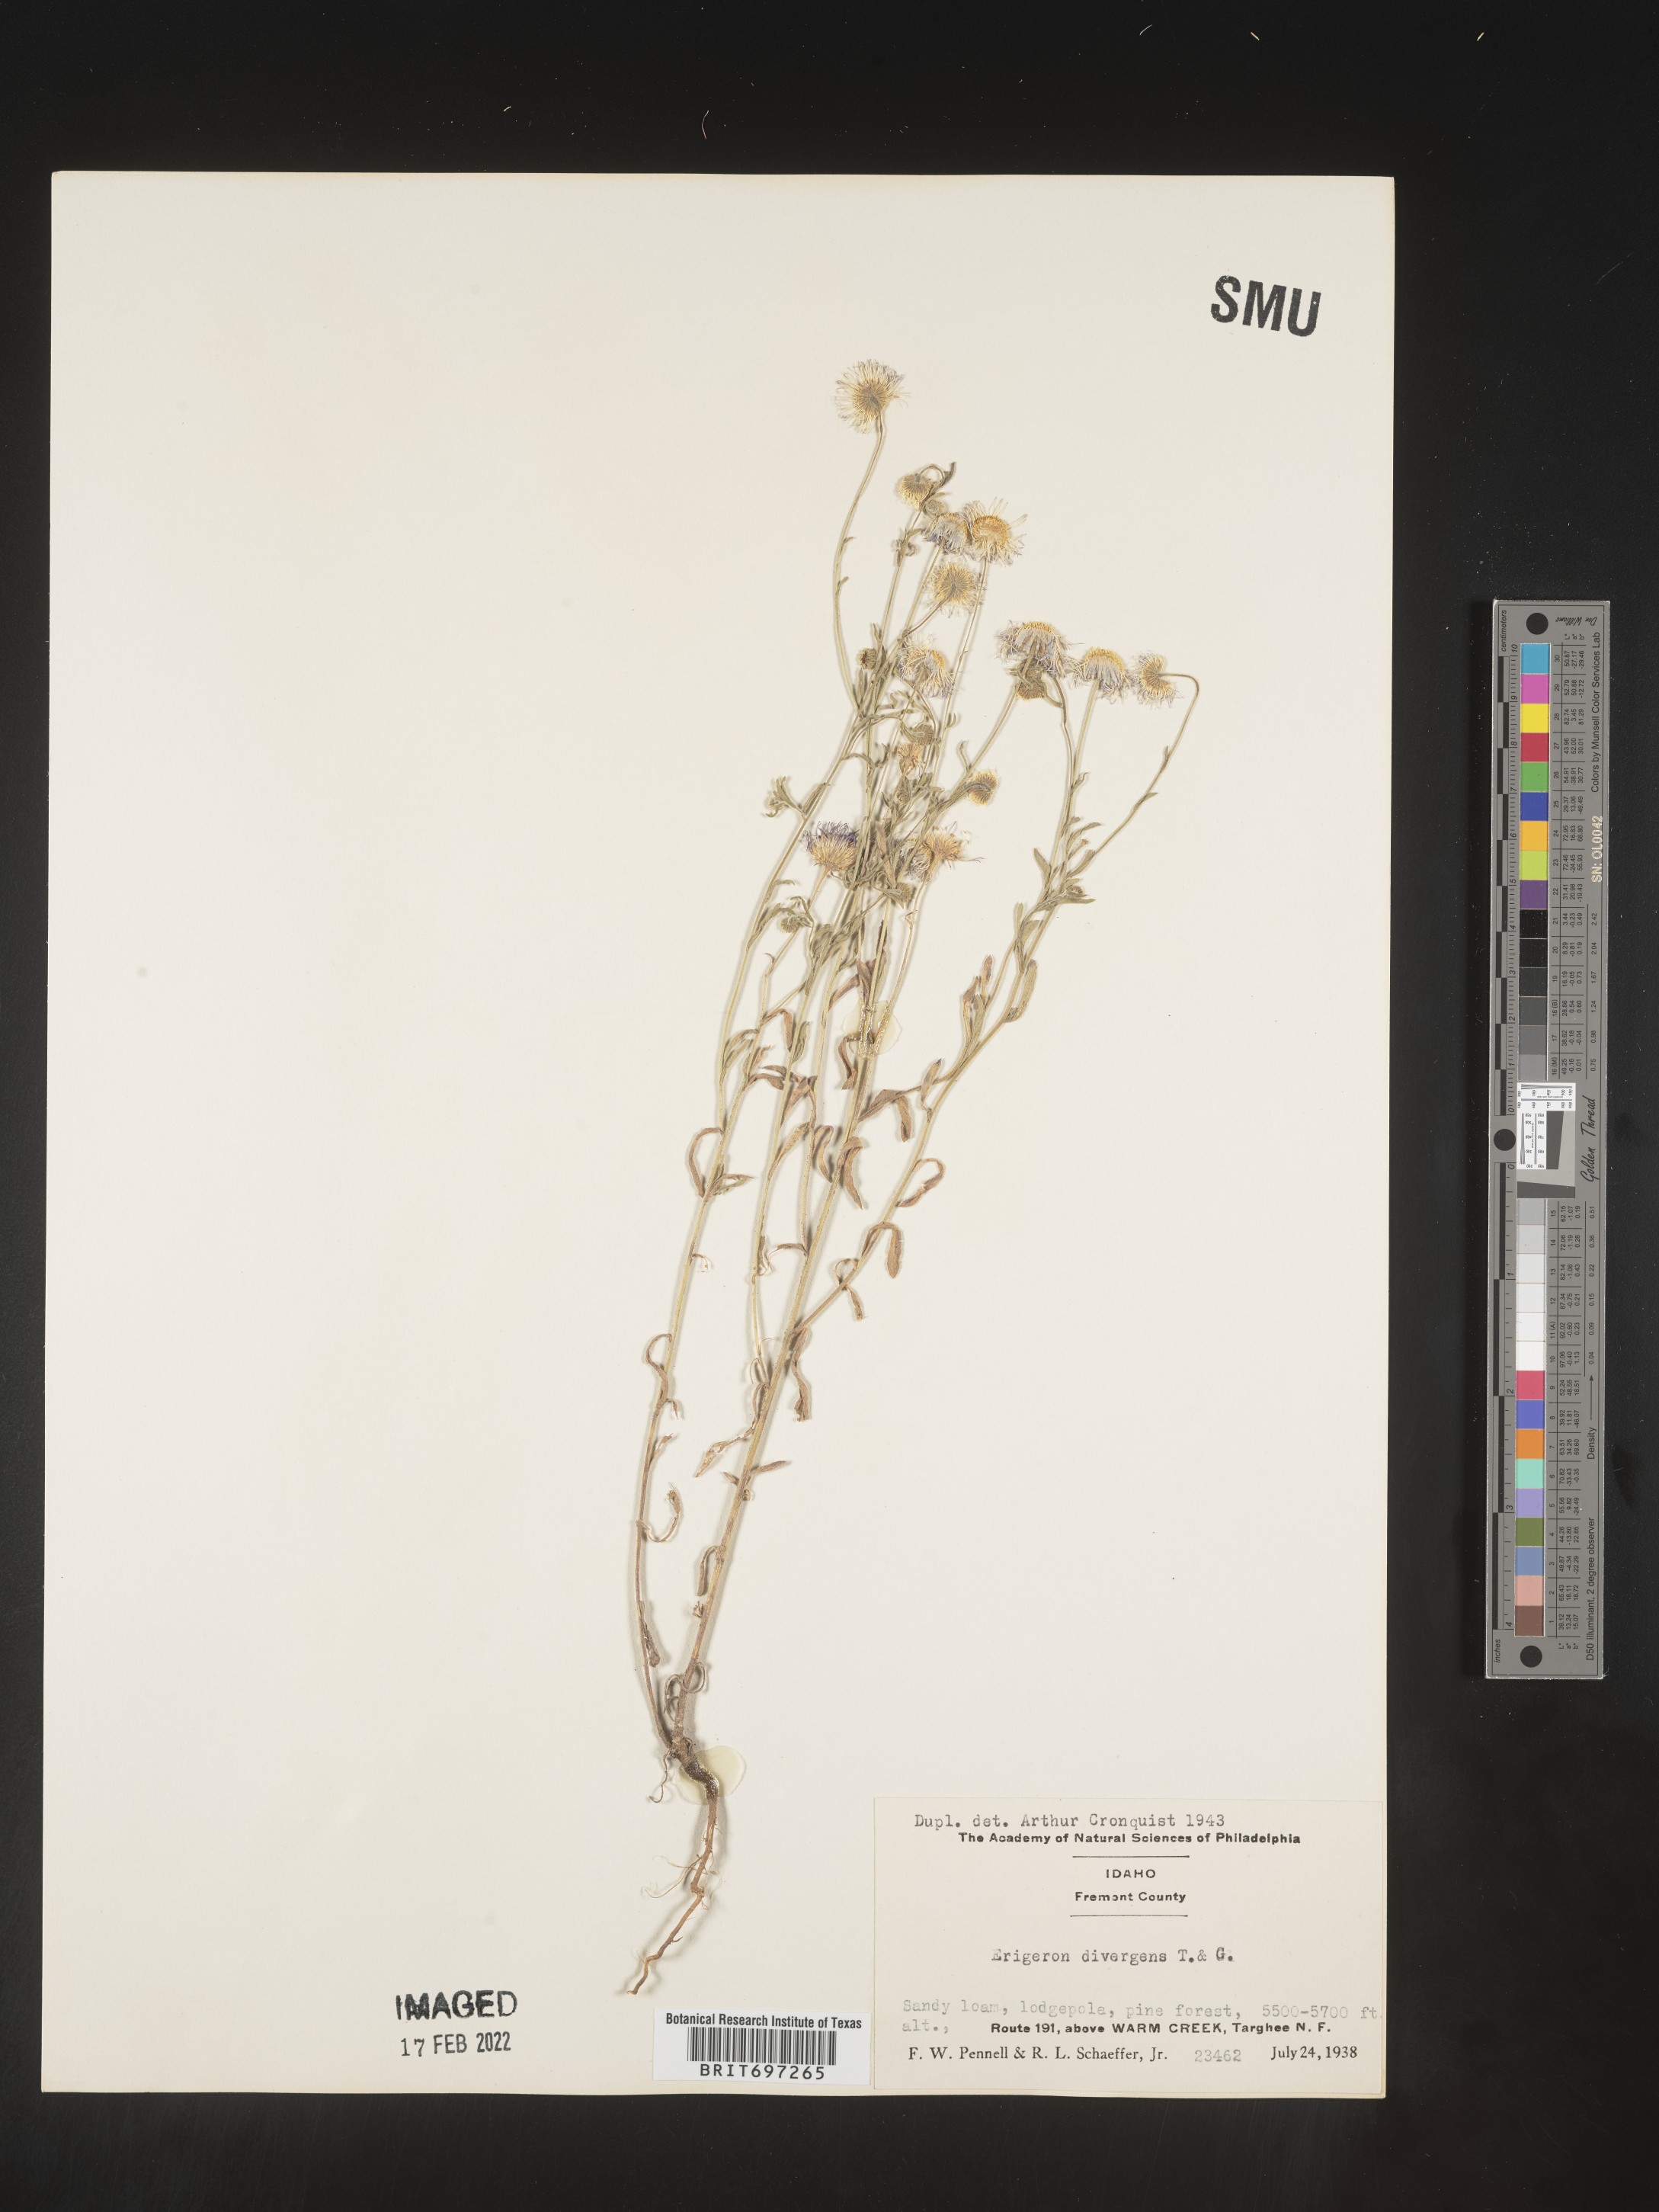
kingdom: Plantae
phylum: Tracheophyta
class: Magnoliopsida
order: Asterales
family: Asteraceae
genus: Erigeron
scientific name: Erigeron divergens
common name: Diffuse fleabane
